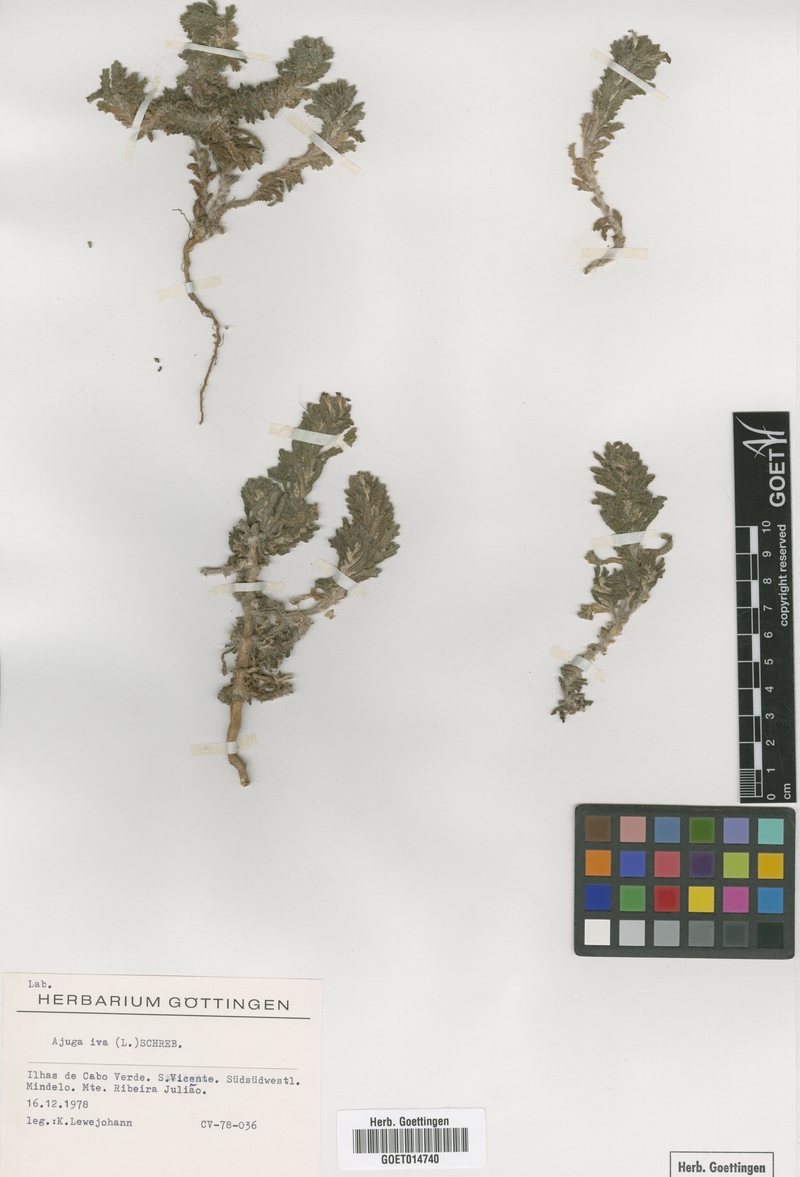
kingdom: Plantae
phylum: Tracheophyta
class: Magnoliopsida
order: Lamiales
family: Lamiaceae
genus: Ajuga
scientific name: Ajuga iva
